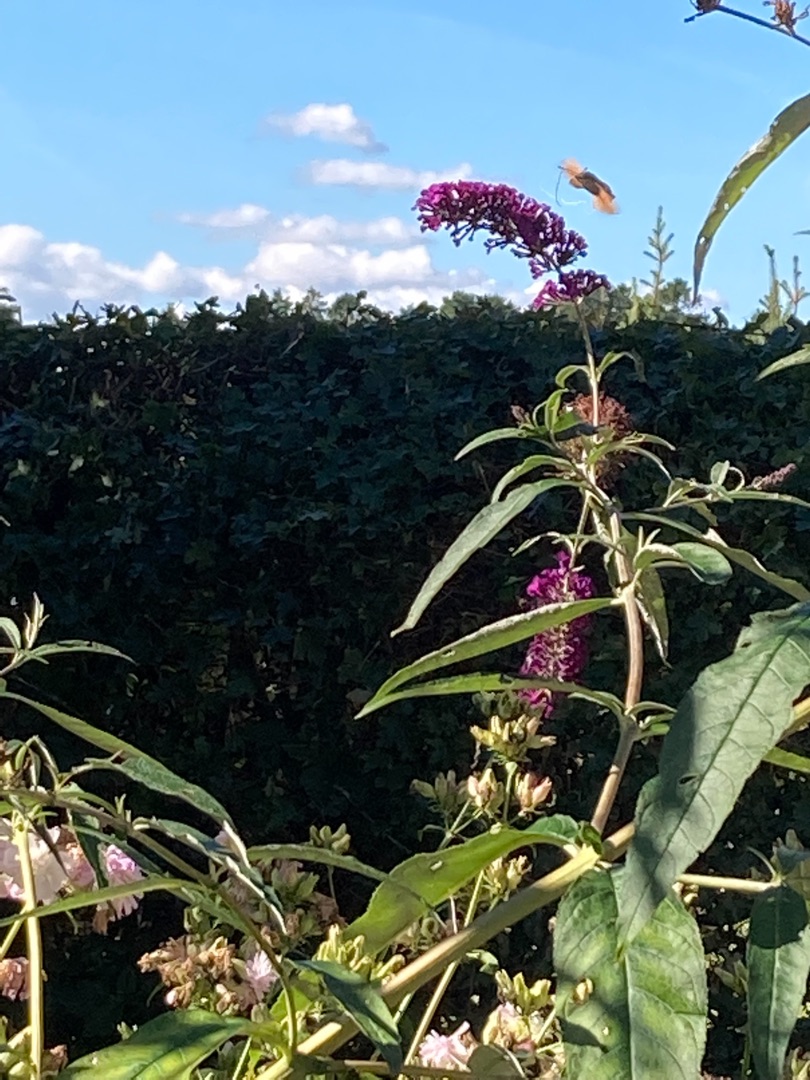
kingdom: Animalia
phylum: Arthropoda
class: Insecta
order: Lepidoptera
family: Sphingidae
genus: Macroglossum
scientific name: Macroglossum stellatarum
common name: Duehale
